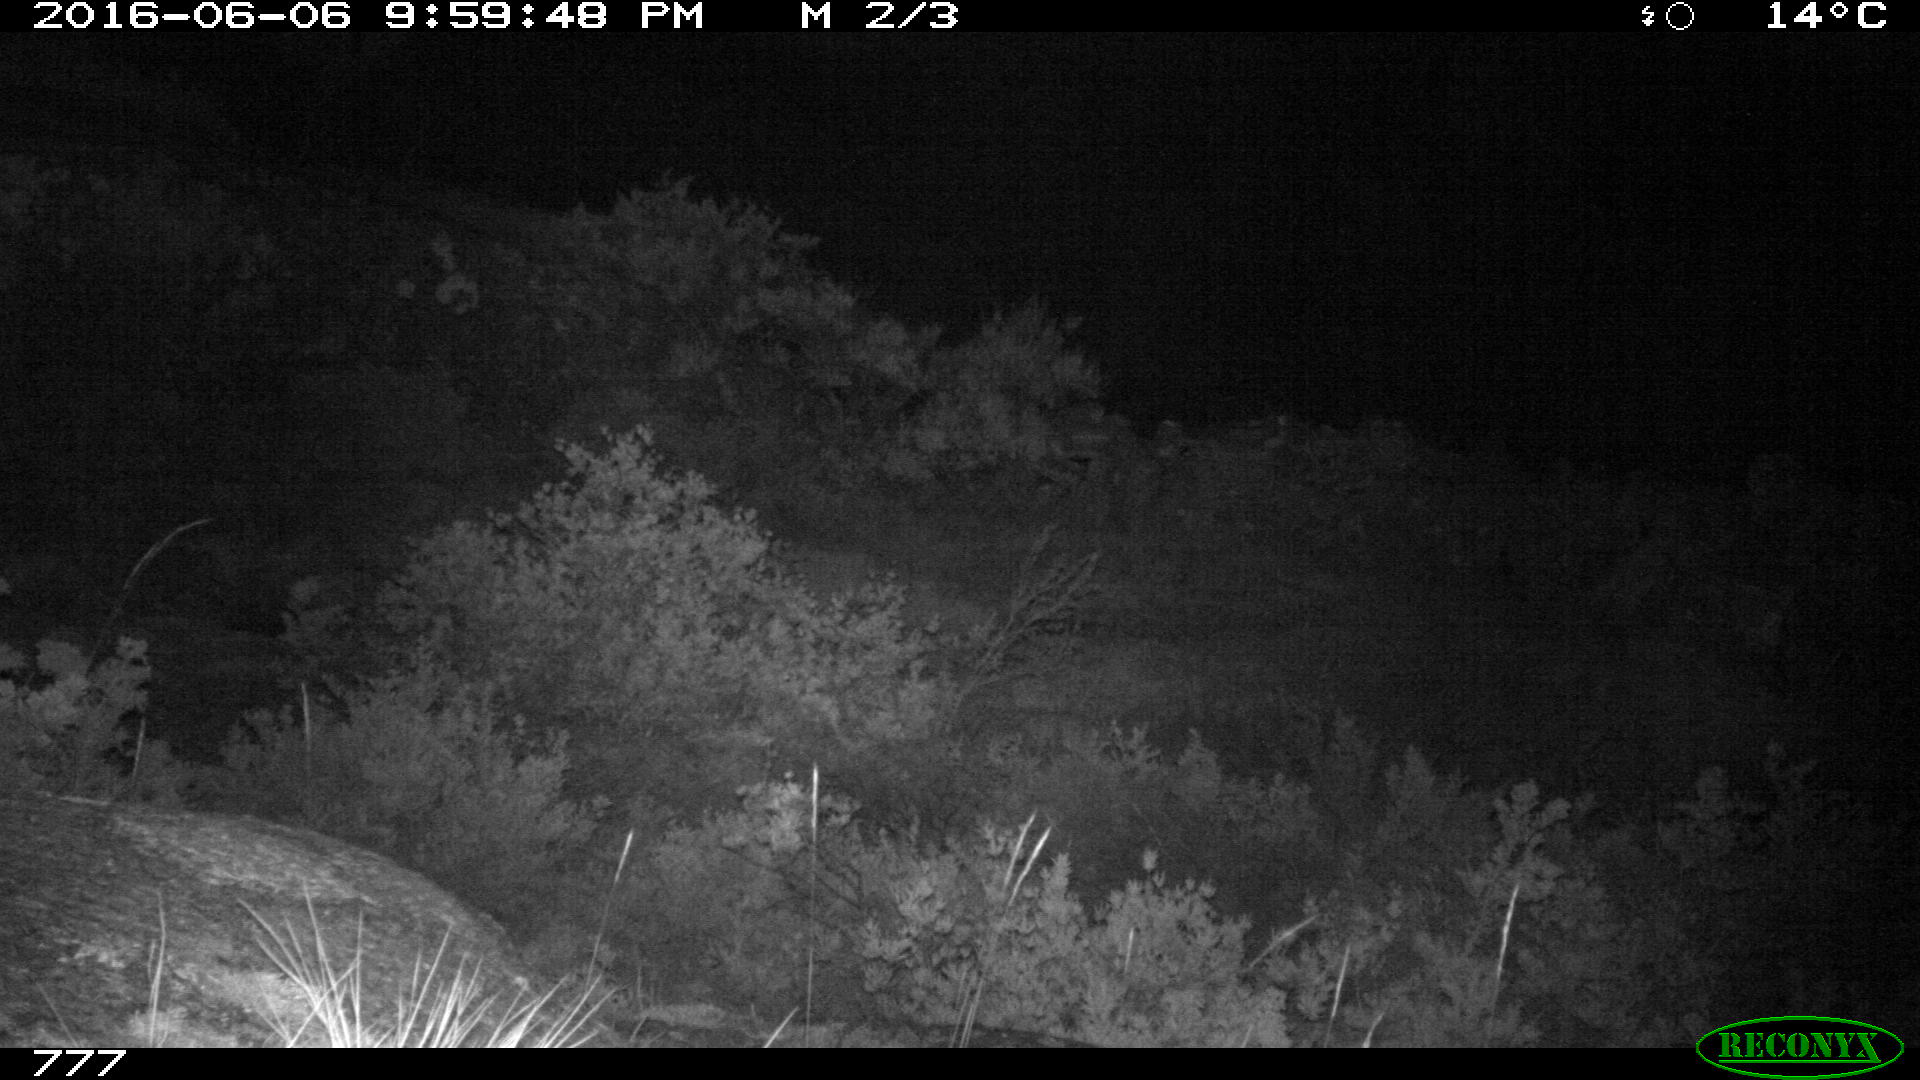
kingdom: Animalia
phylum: Chordata
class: Mammalia
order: Carnivora
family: Canidae
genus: Vulpes
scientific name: Vulpes vulpes
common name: Red fox
